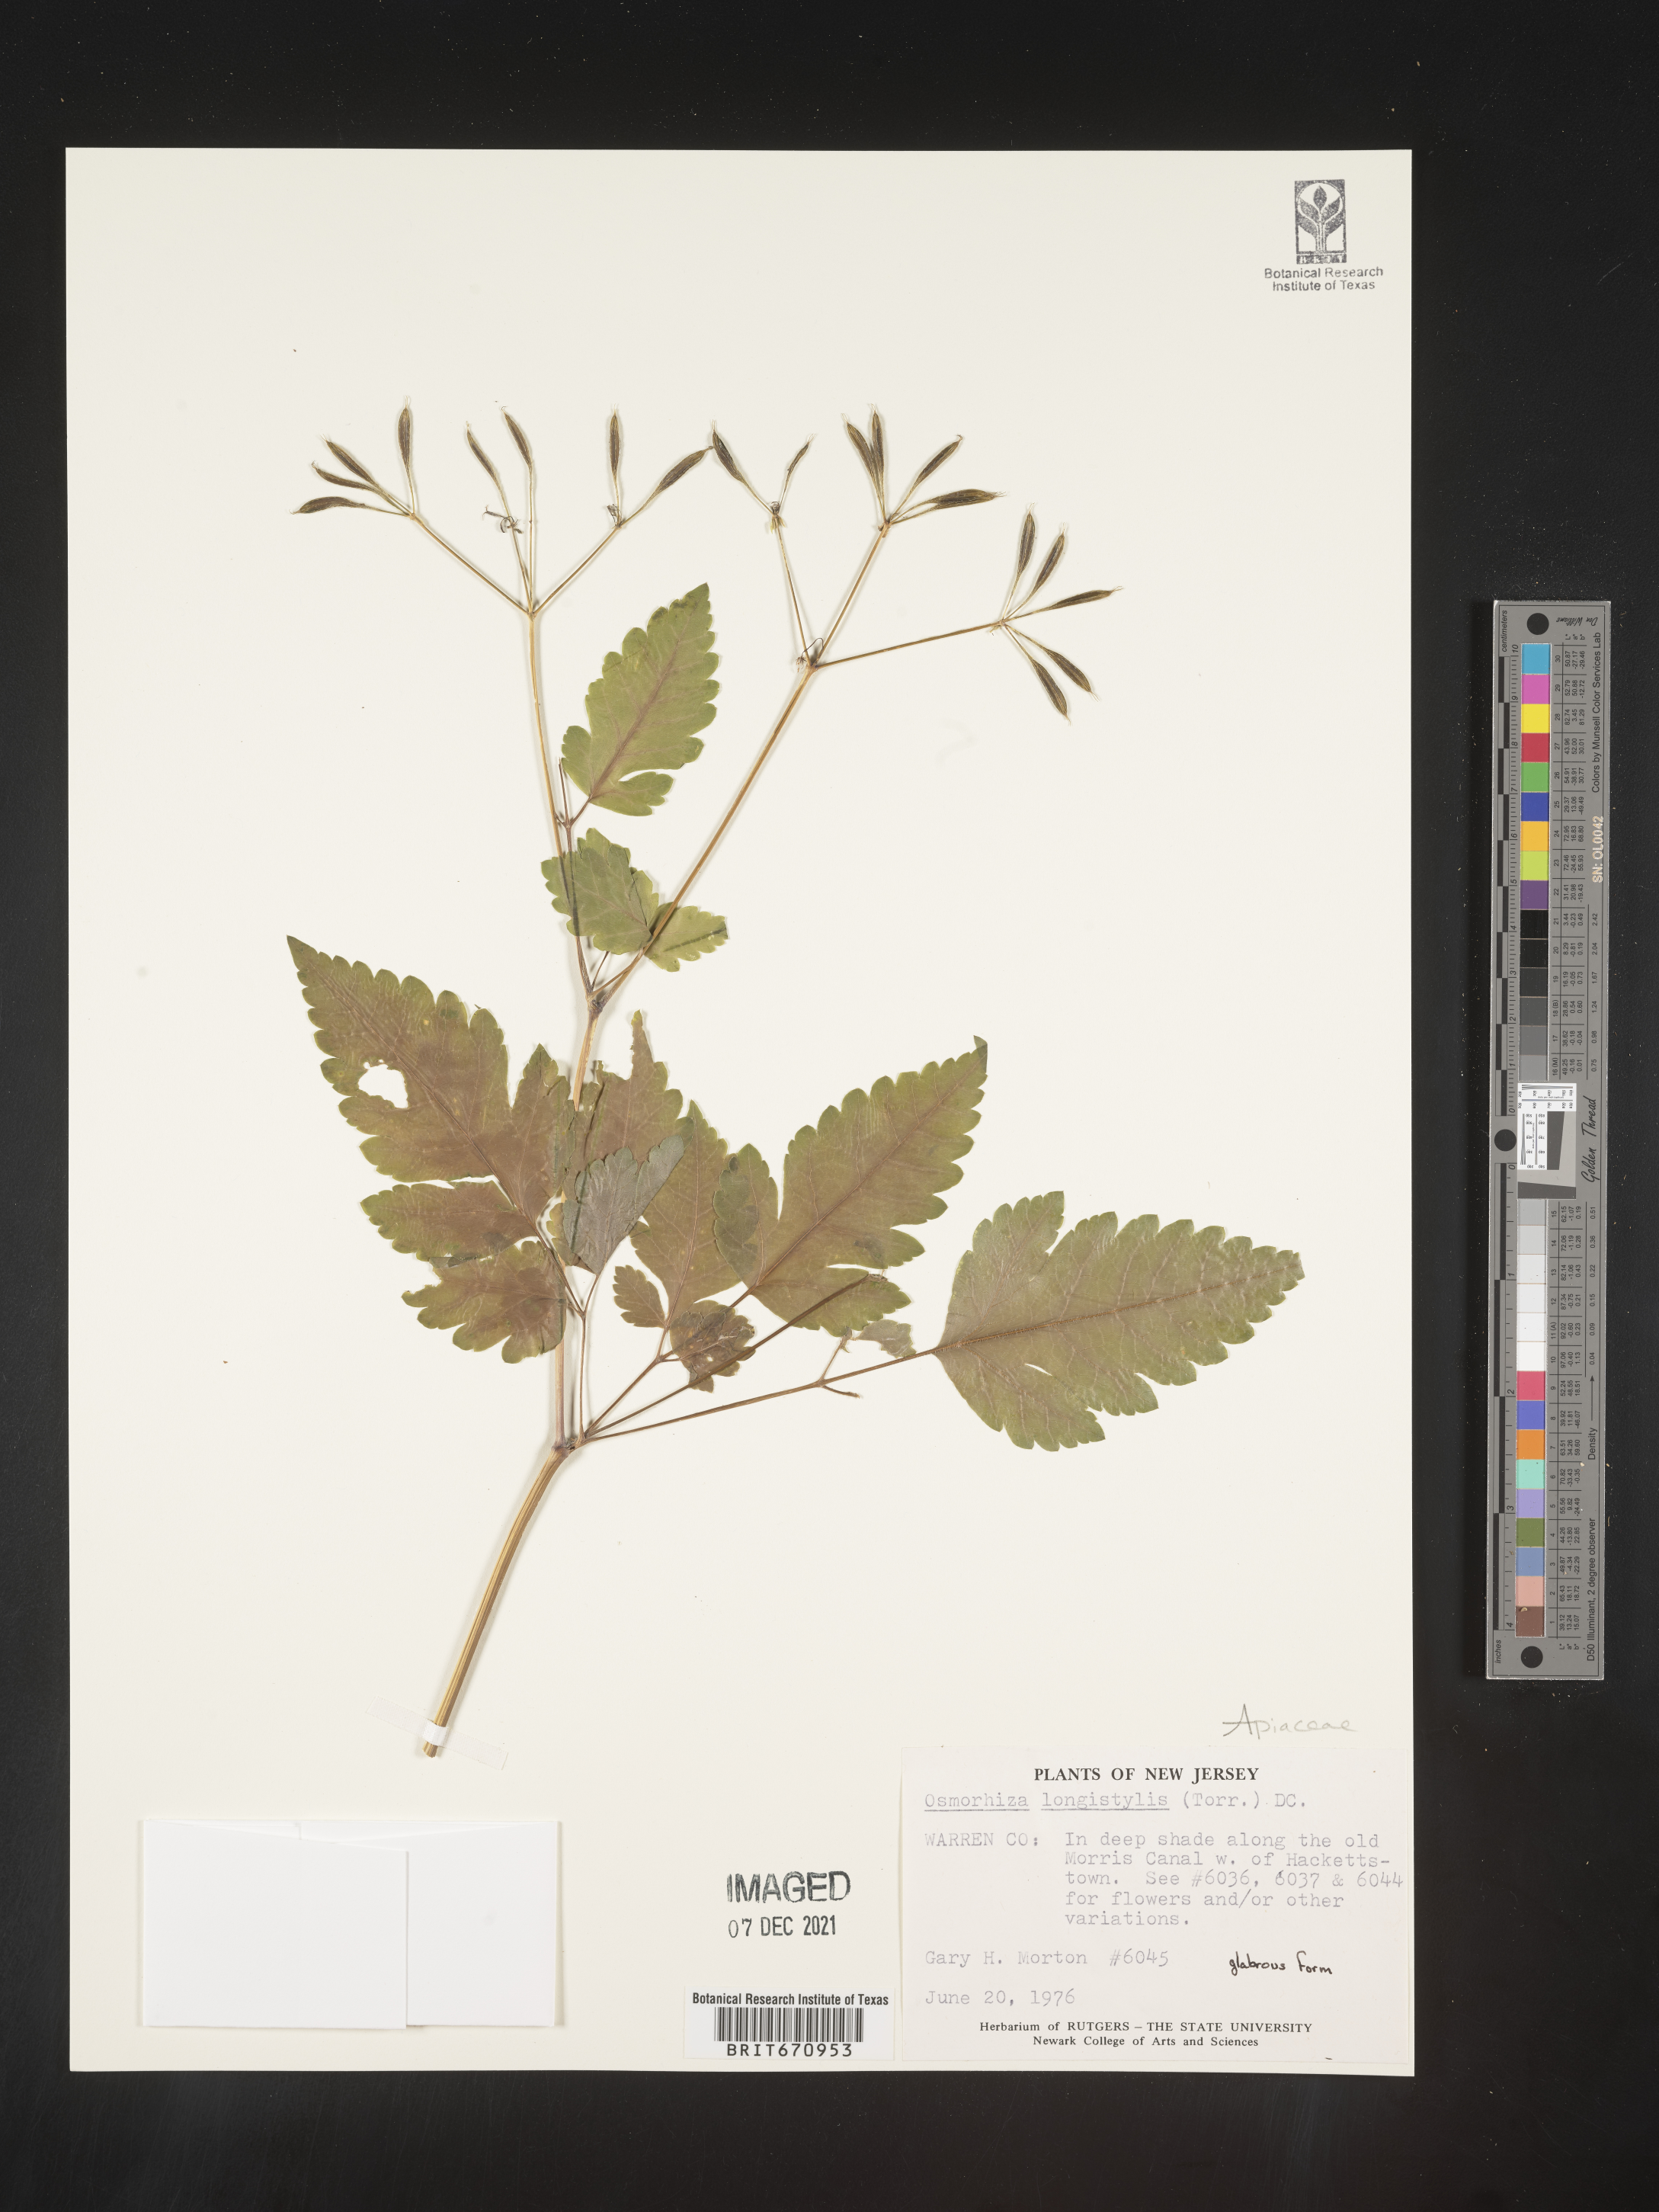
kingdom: Plantae
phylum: Tracheophyta
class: Magnoliopsida
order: Apiales
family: Apiaceae
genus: Osmorhiza
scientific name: Osmorhiza longistylis
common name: Smooth sweet cicely
